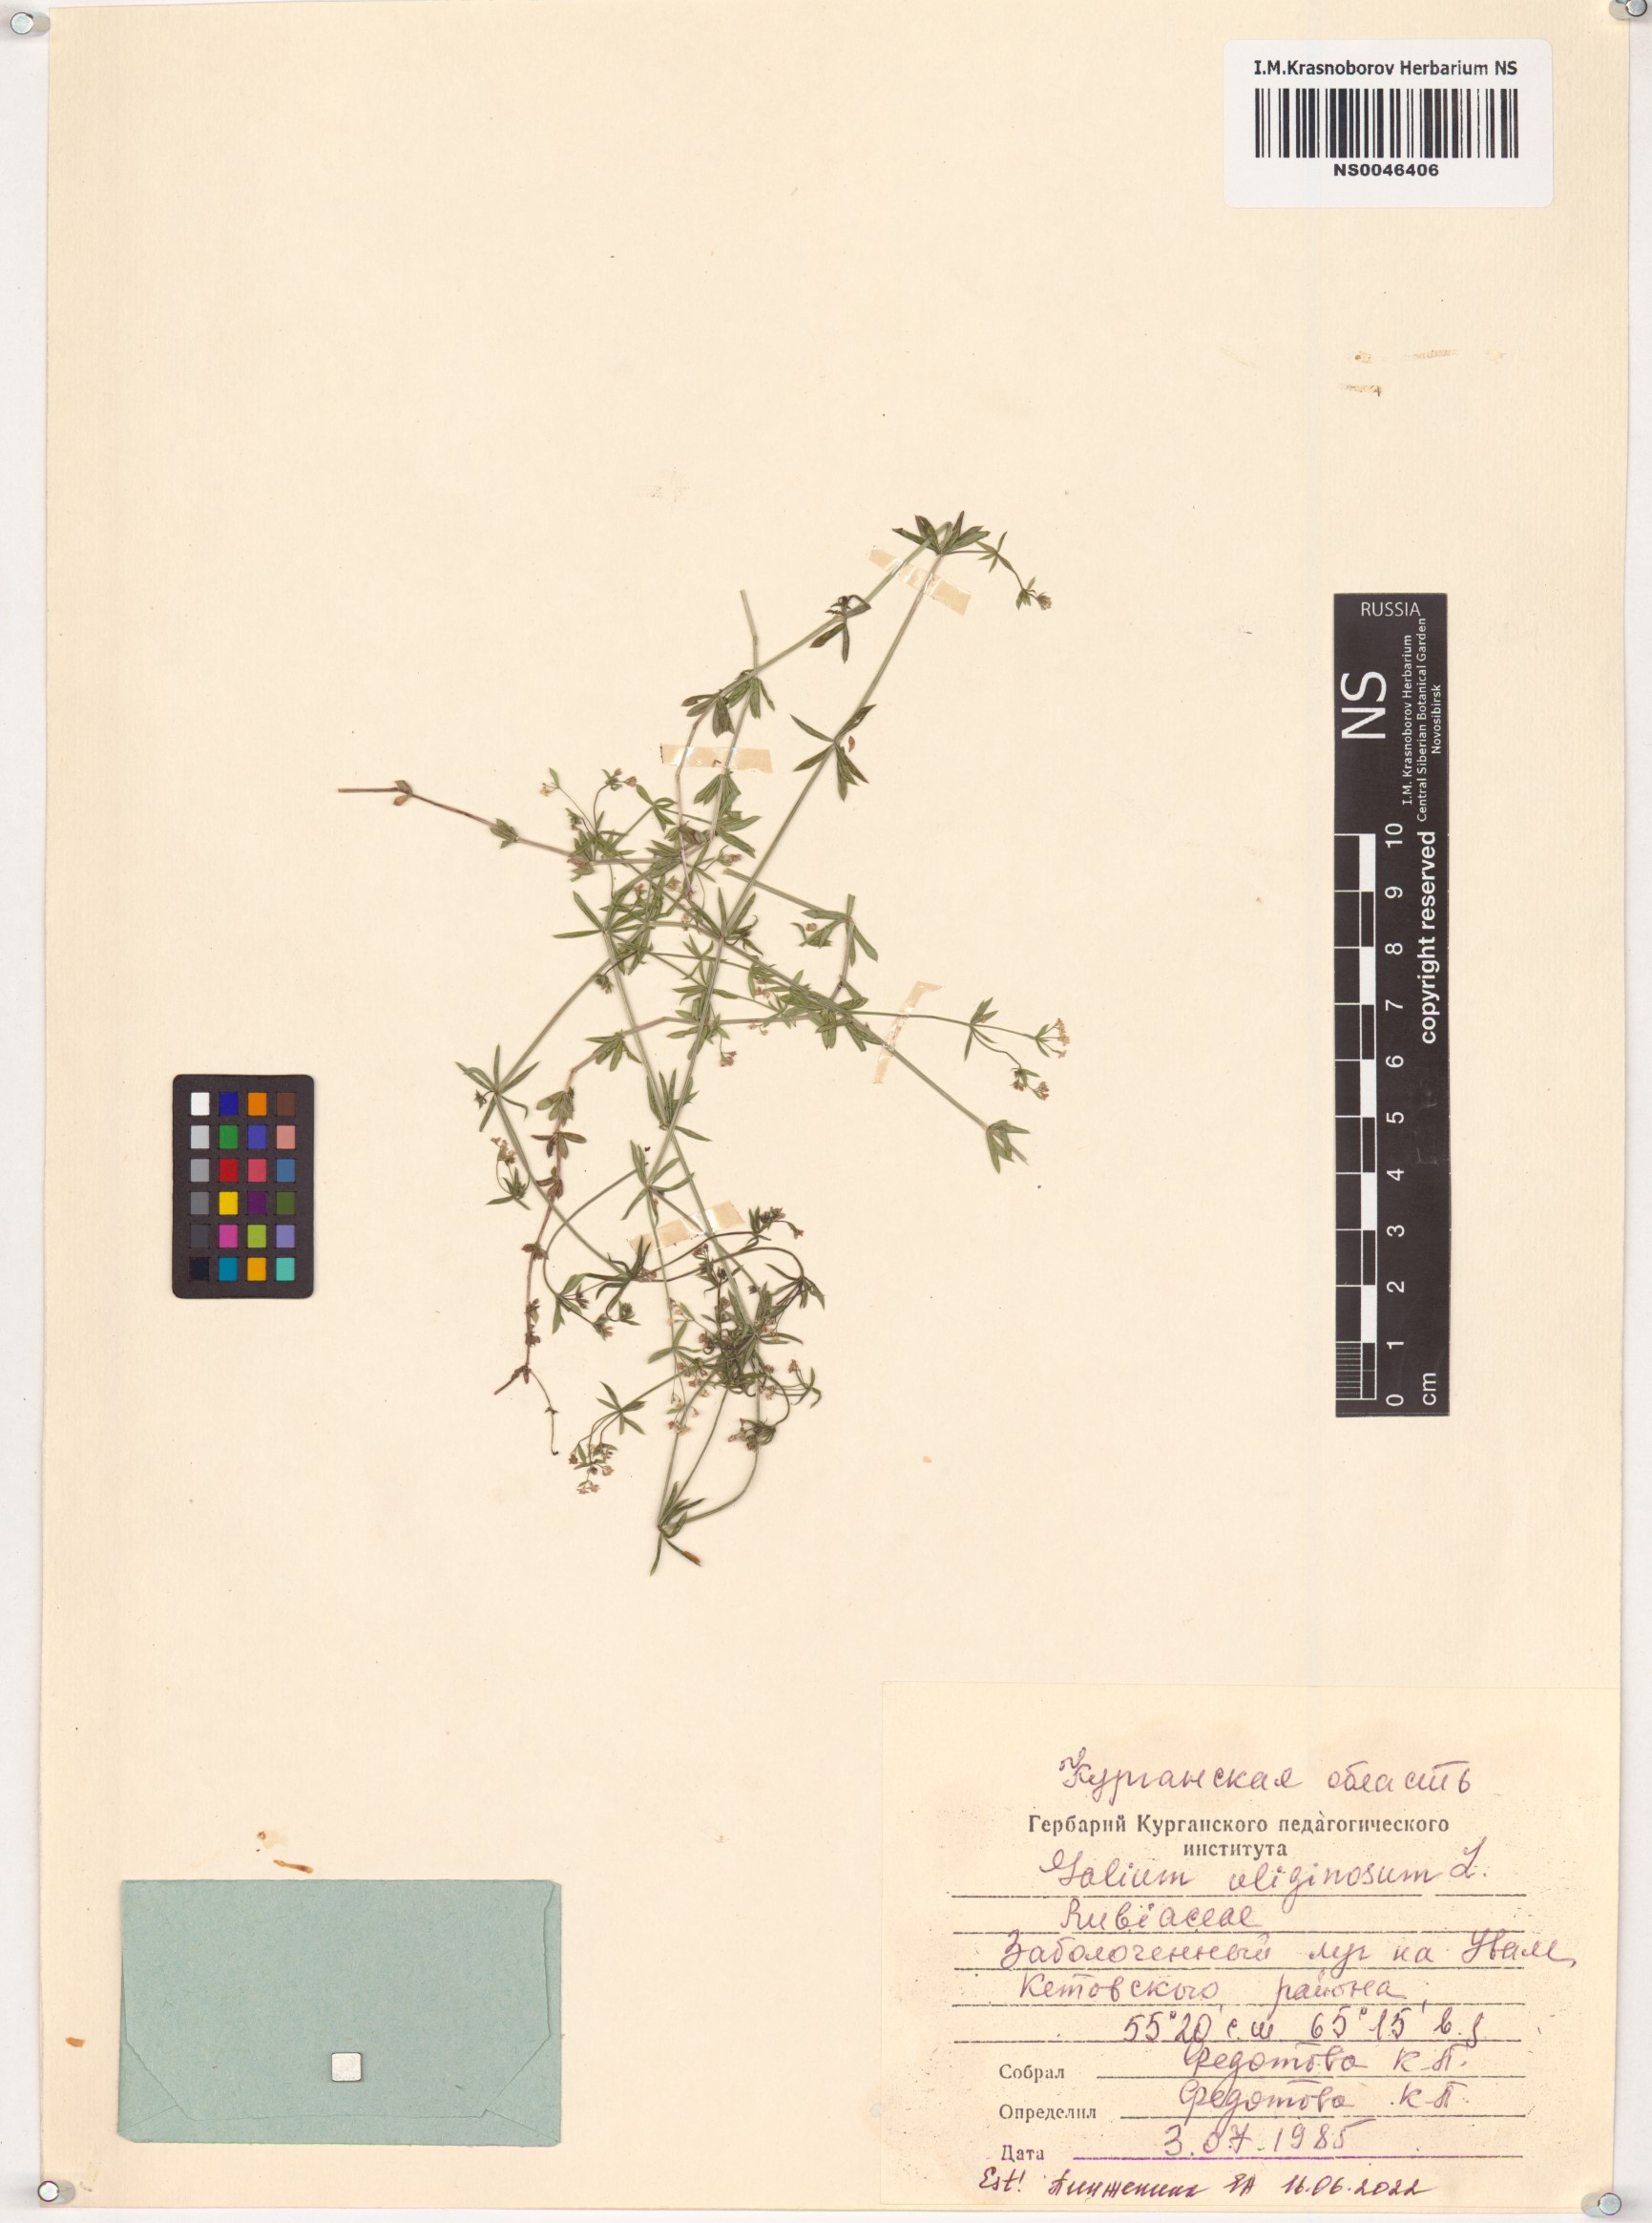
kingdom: Plantae
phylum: Tracheophyta
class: Magnoliopsida
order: Gentianales
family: Rubiaceae
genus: Galium
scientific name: Galium uliginosum
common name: Fen bedstraw
